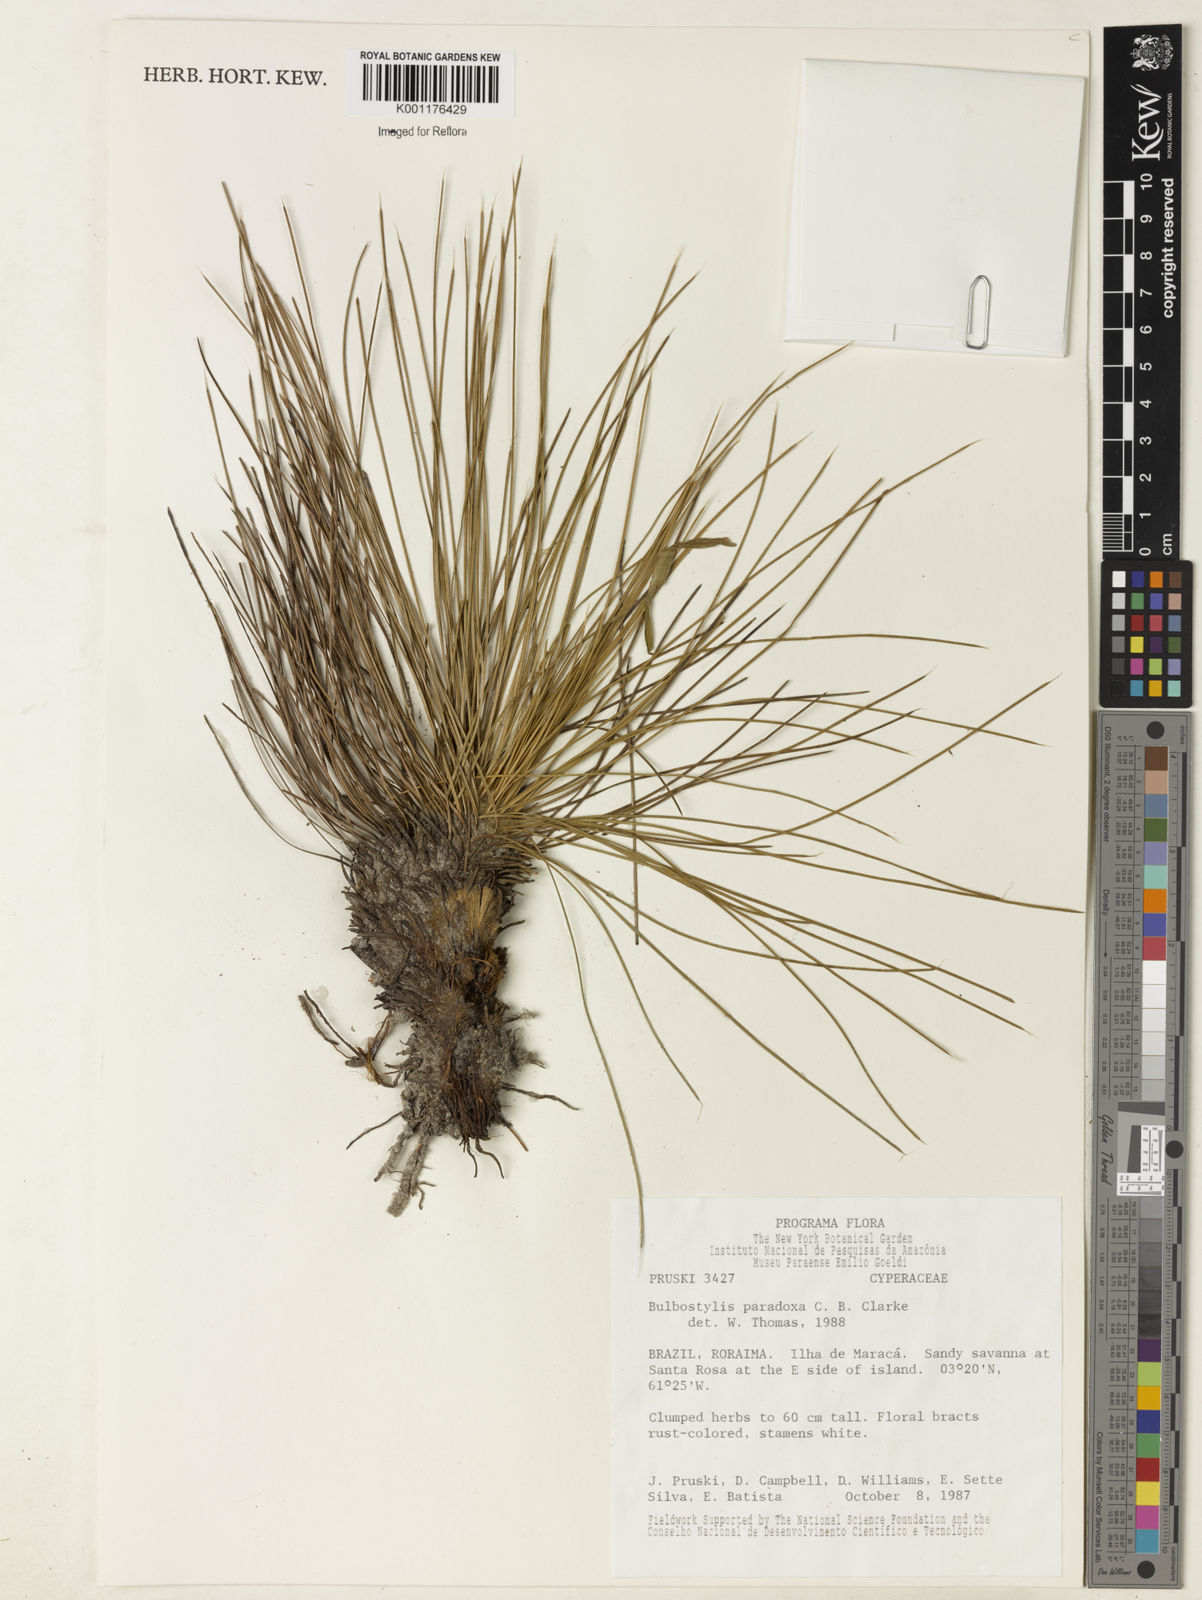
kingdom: Plantae
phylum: Tracheophyta
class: Liliopsida
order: Poales
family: Cyperaceae
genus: Bulbostylis
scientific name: Bulbostylis paraensis
